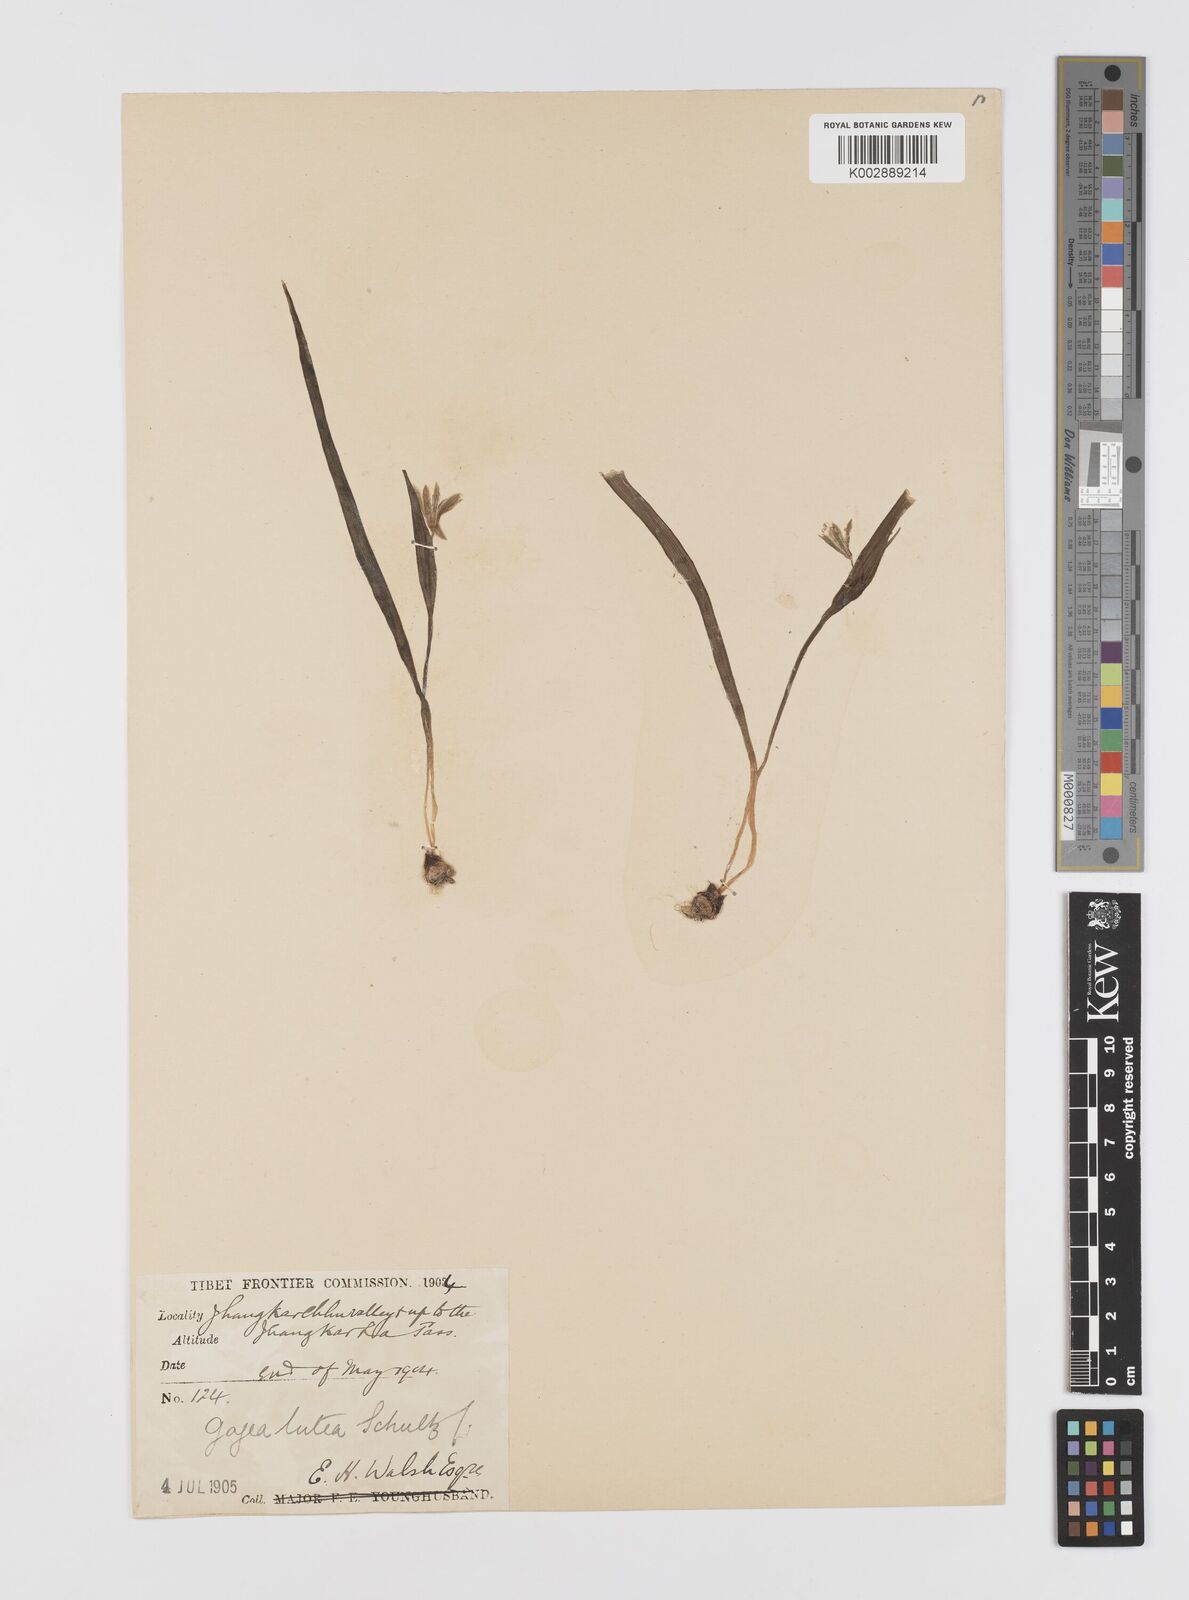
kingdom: Plantae
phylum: Tracheophyta
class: Liliopsida
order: Liliales
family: Liliaceae
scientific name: Liliaceae
